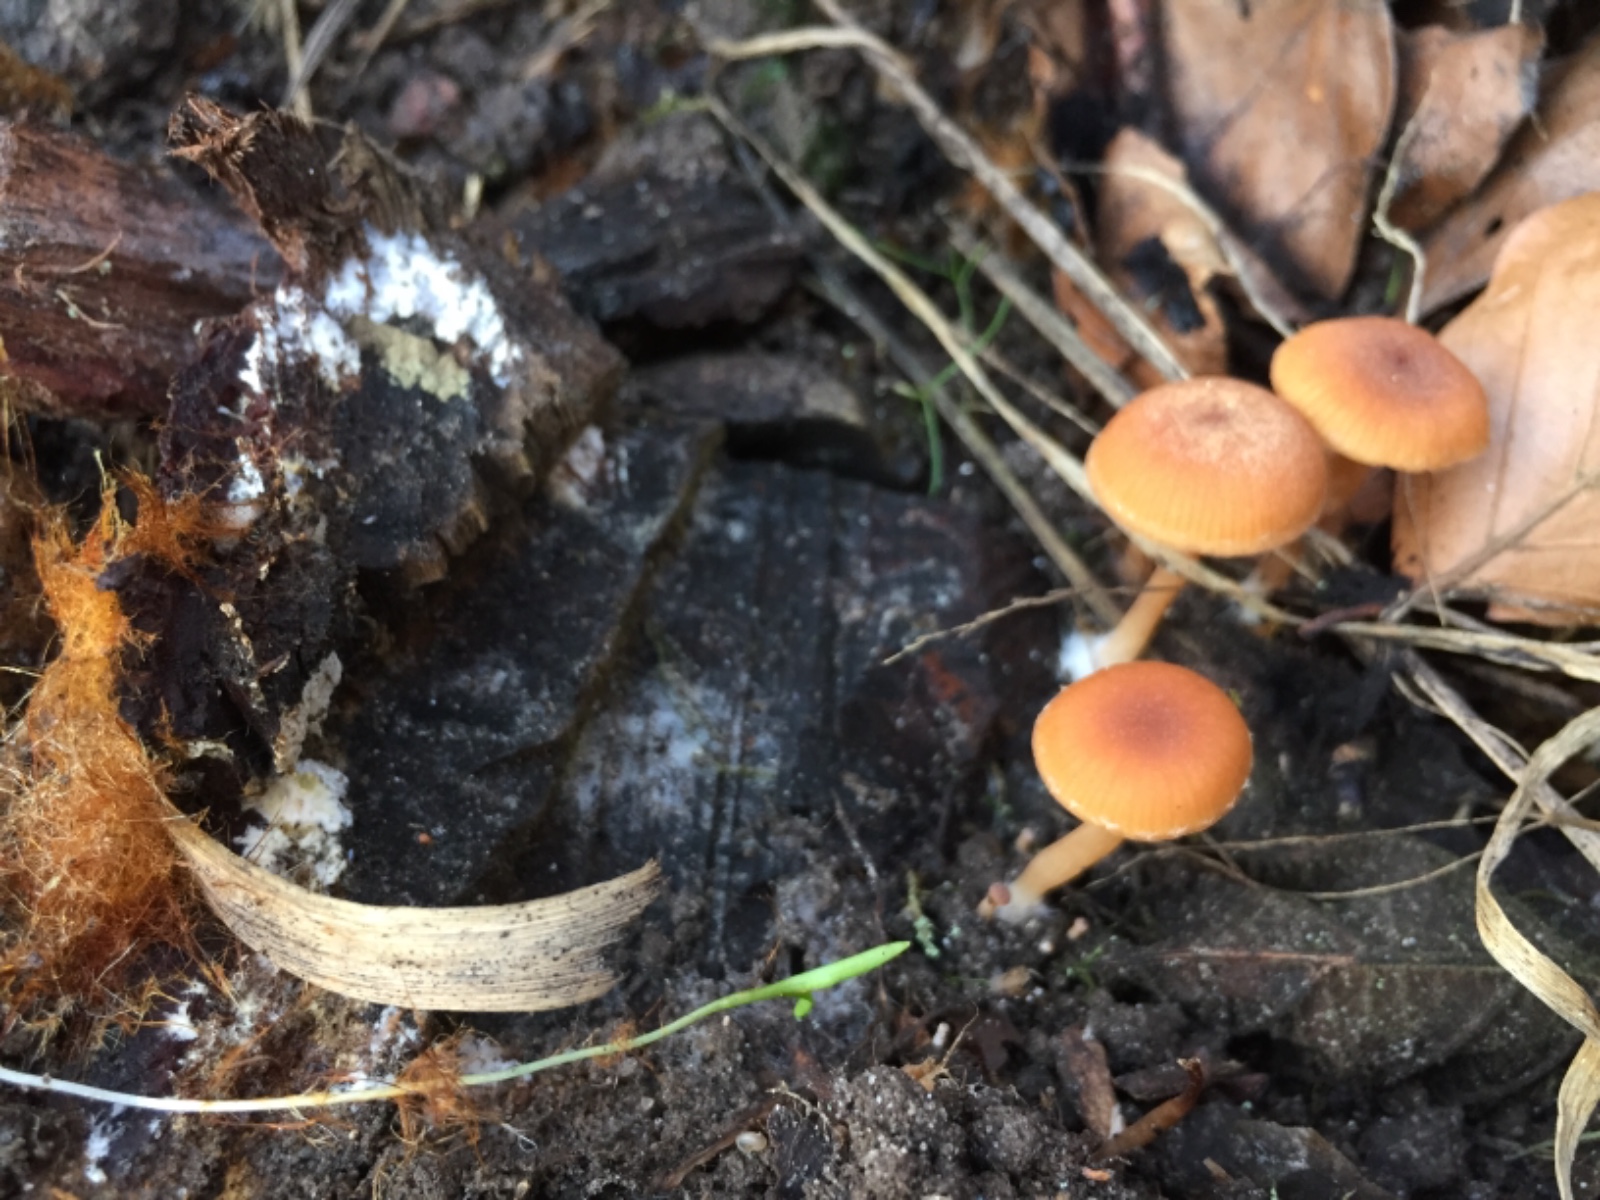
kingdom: Fungi
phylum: Basidiomycota
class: Agaricomycetes
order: Agaricales
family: Tubariaceae
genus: Tubaria
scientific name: Tubaria furfuracea
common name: kliddet fnughat
